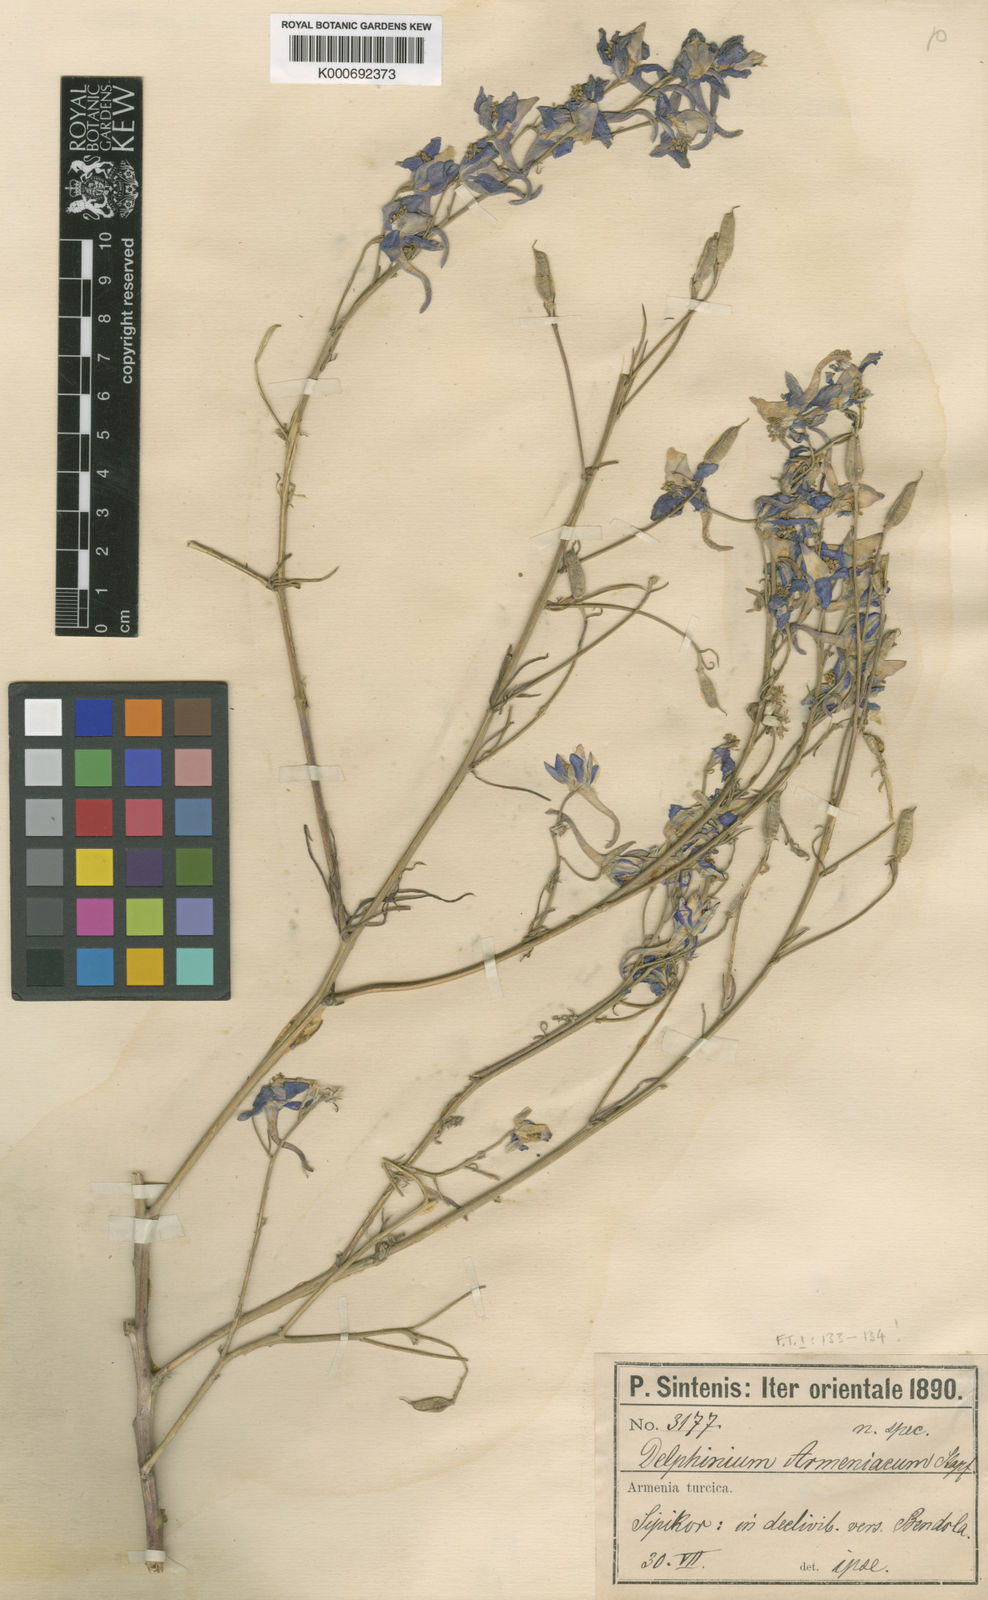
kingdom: Plantae
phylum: Tracheophyta
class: Magnoliopsida
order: Ranunculales
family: Ranunculaceae
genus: Delphinium
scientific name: Delphinium
